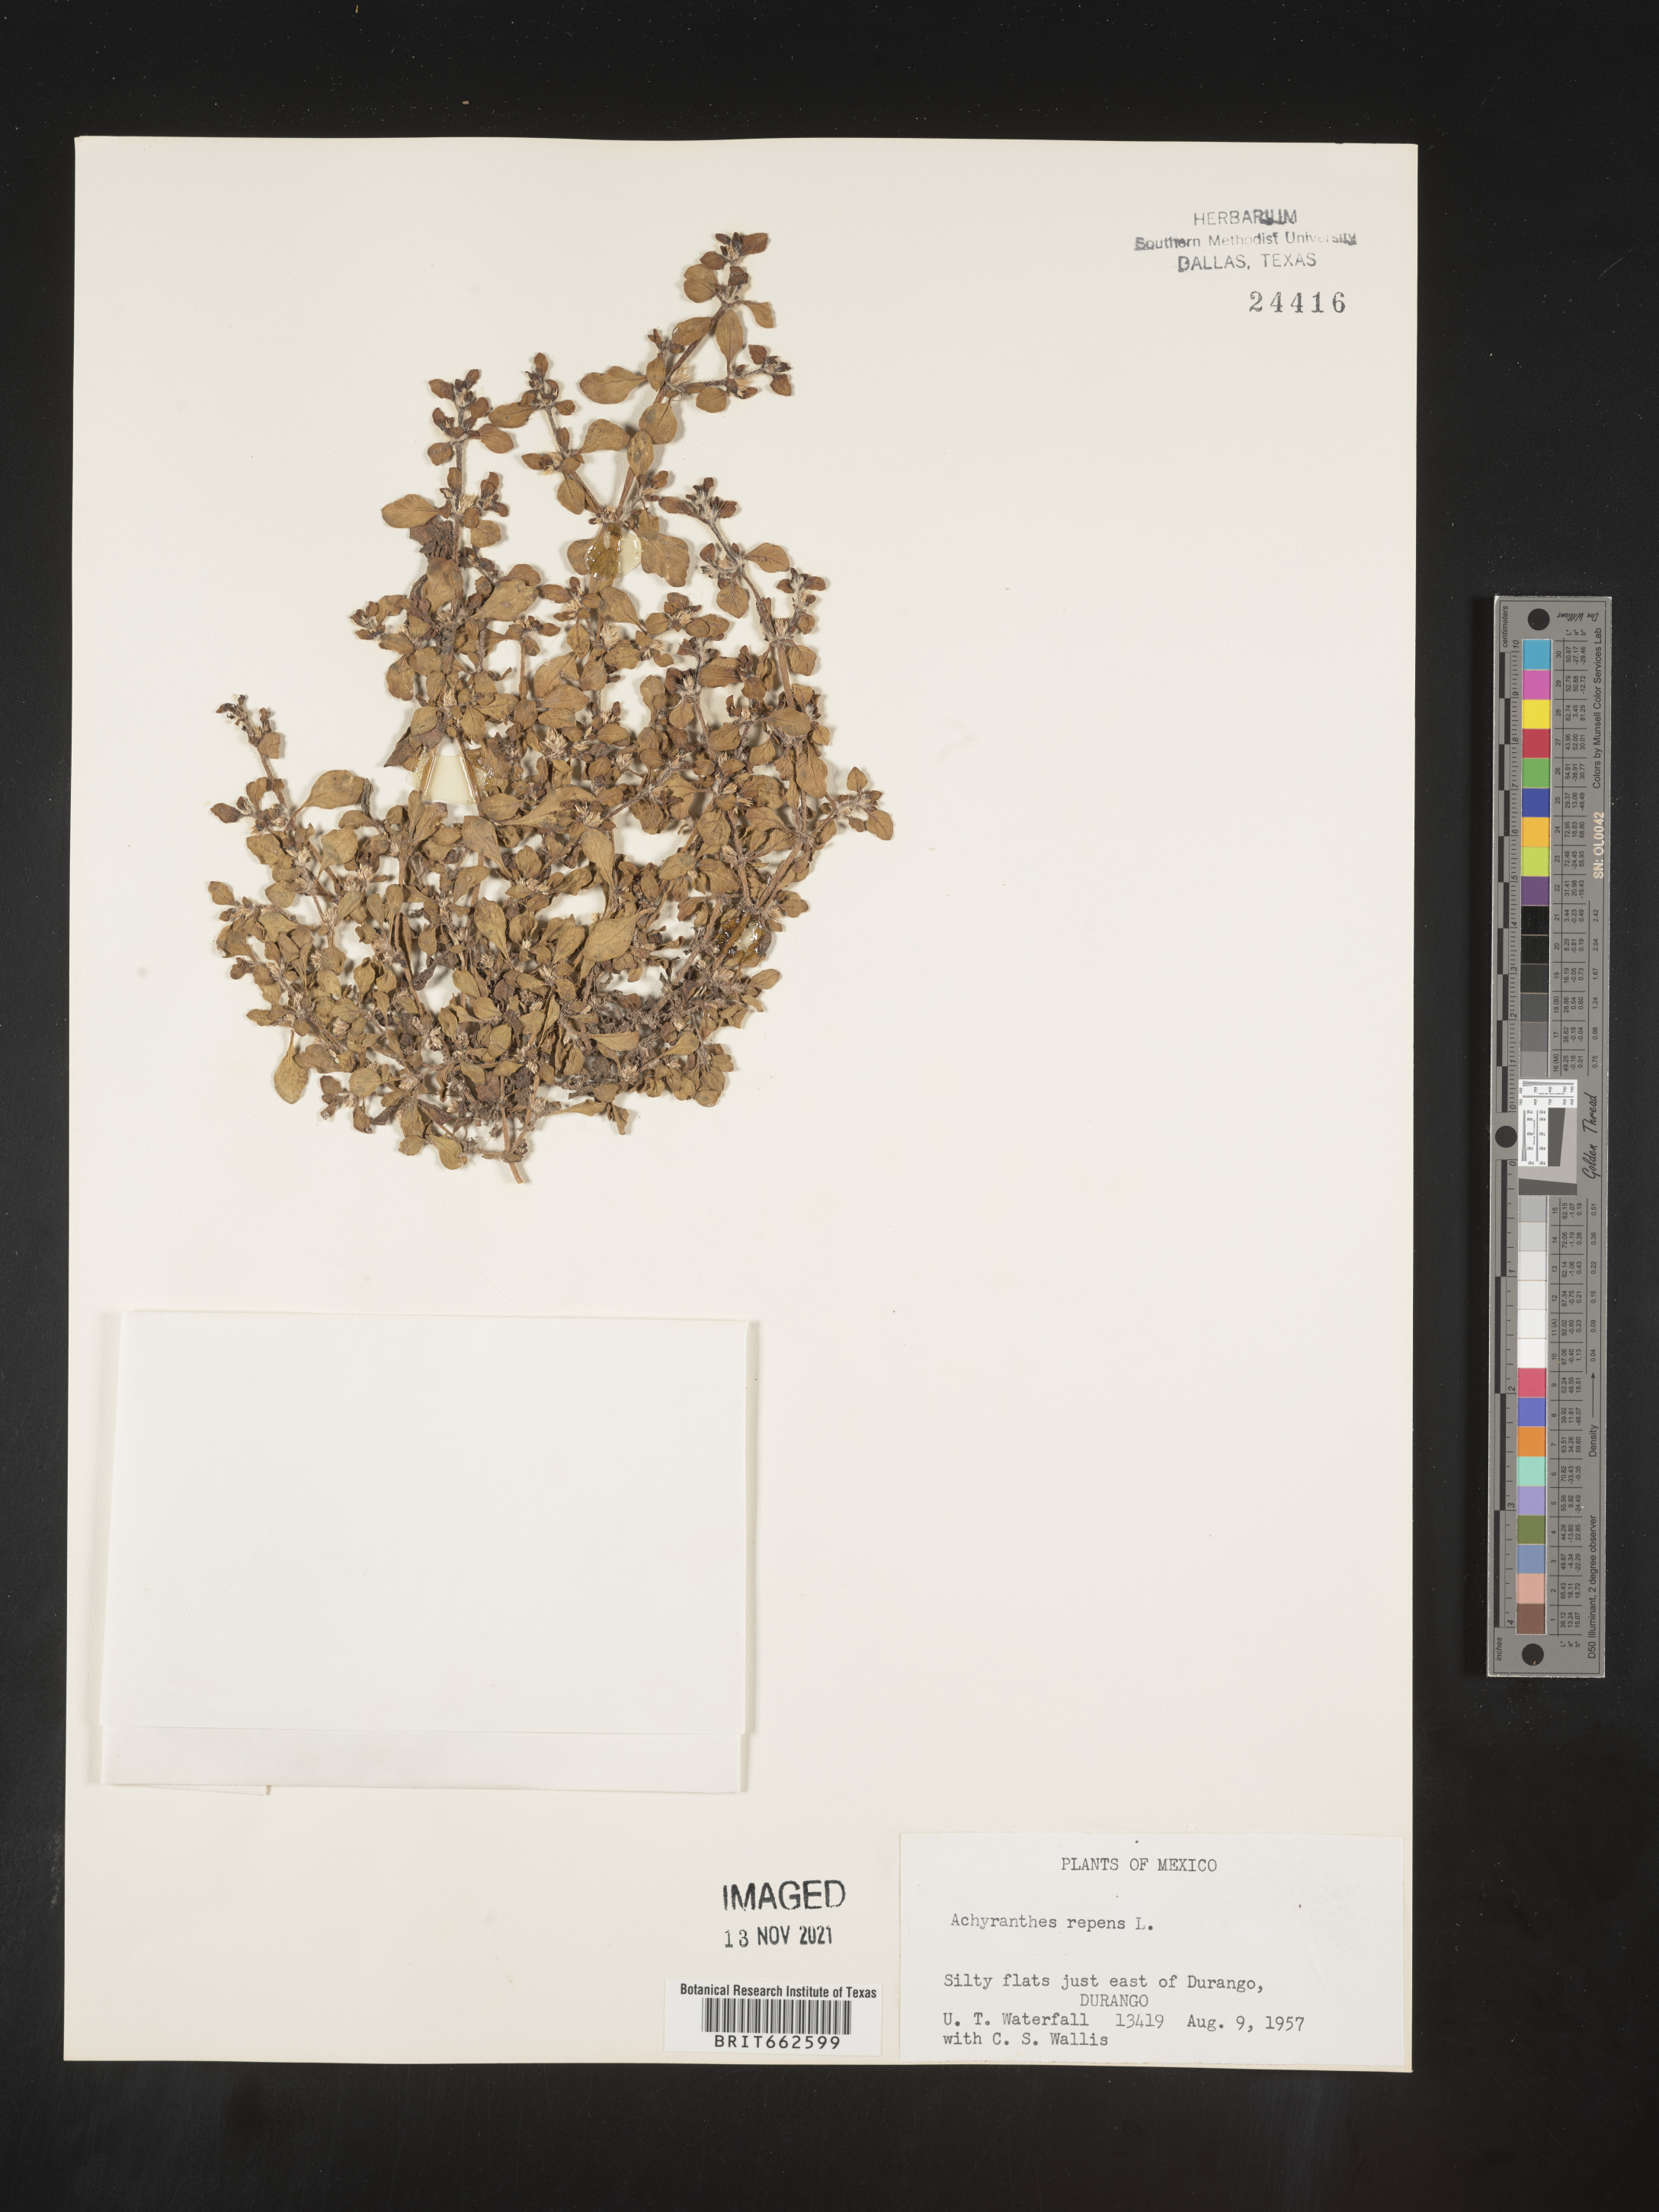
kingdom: Plantae
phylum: Tracheophyta
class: Magnoliopsida
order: Caryophyllales
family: Amaranthaceae
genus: Alternanthera
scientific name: Alternanthera
